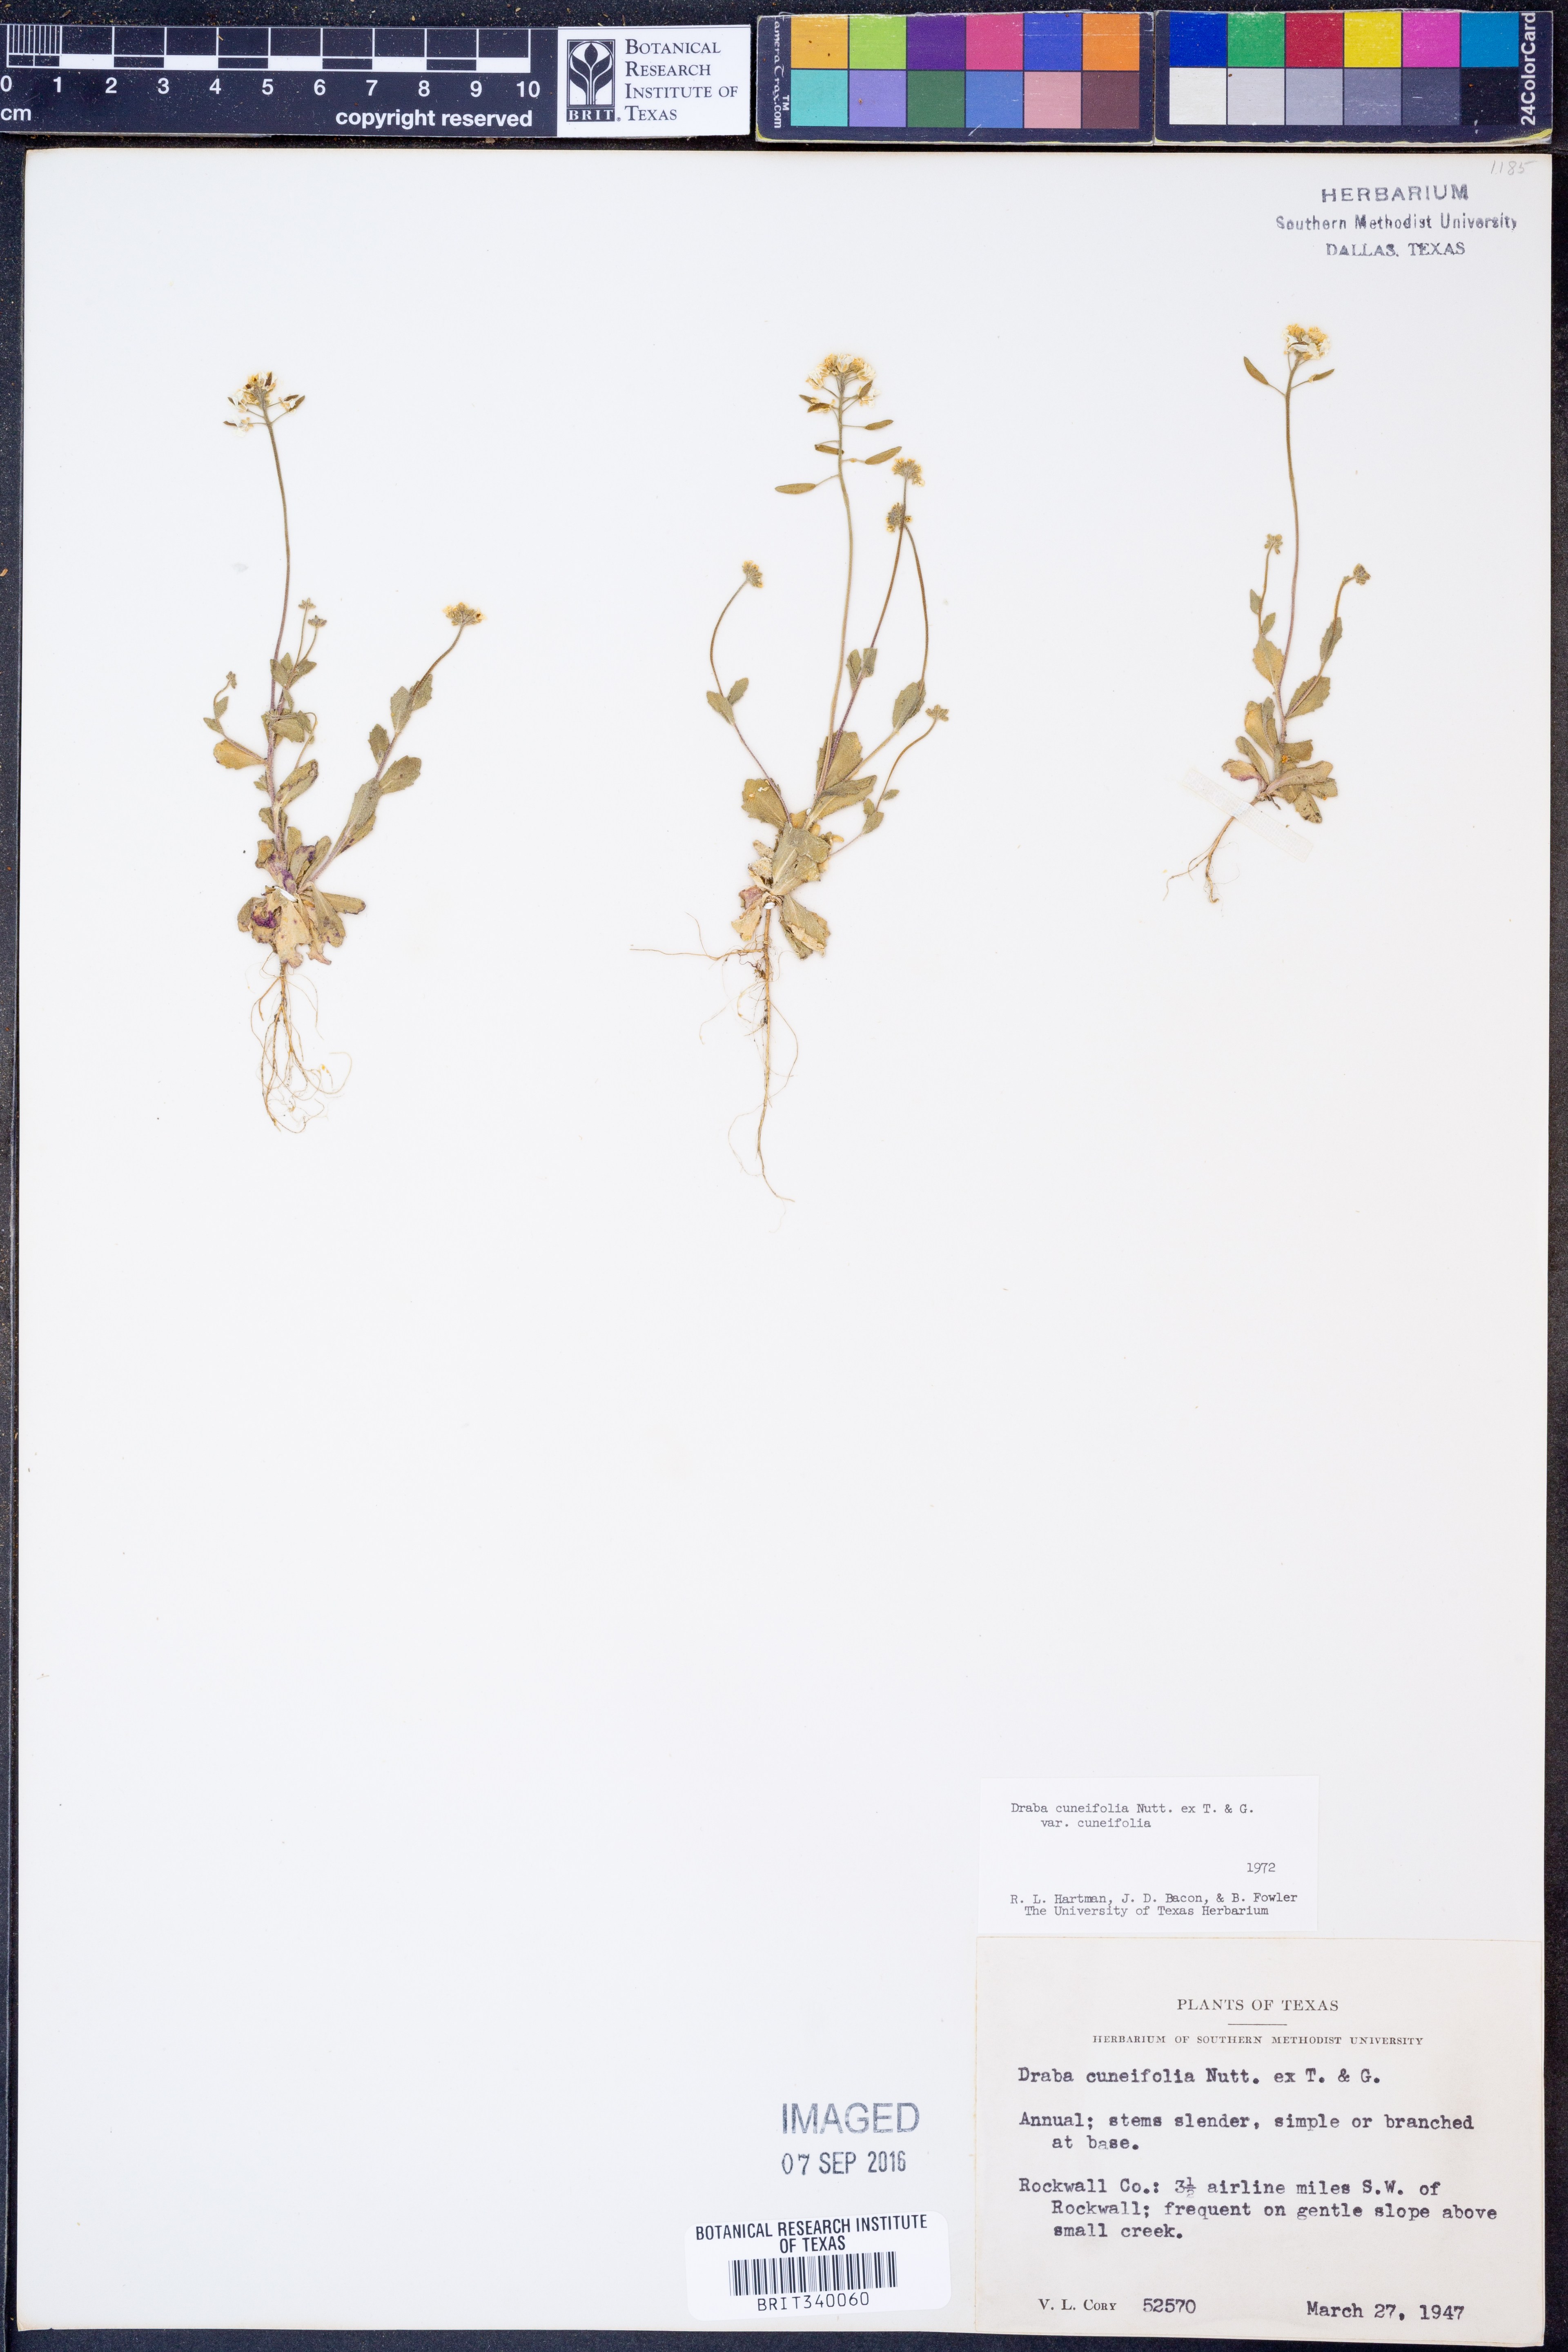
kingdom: Plantae
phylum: Tracheophyta
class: Magnoliopsida
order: Brassicales
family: Brassicaceae
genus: Tomostima
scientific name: Tomostima cuneifolia
